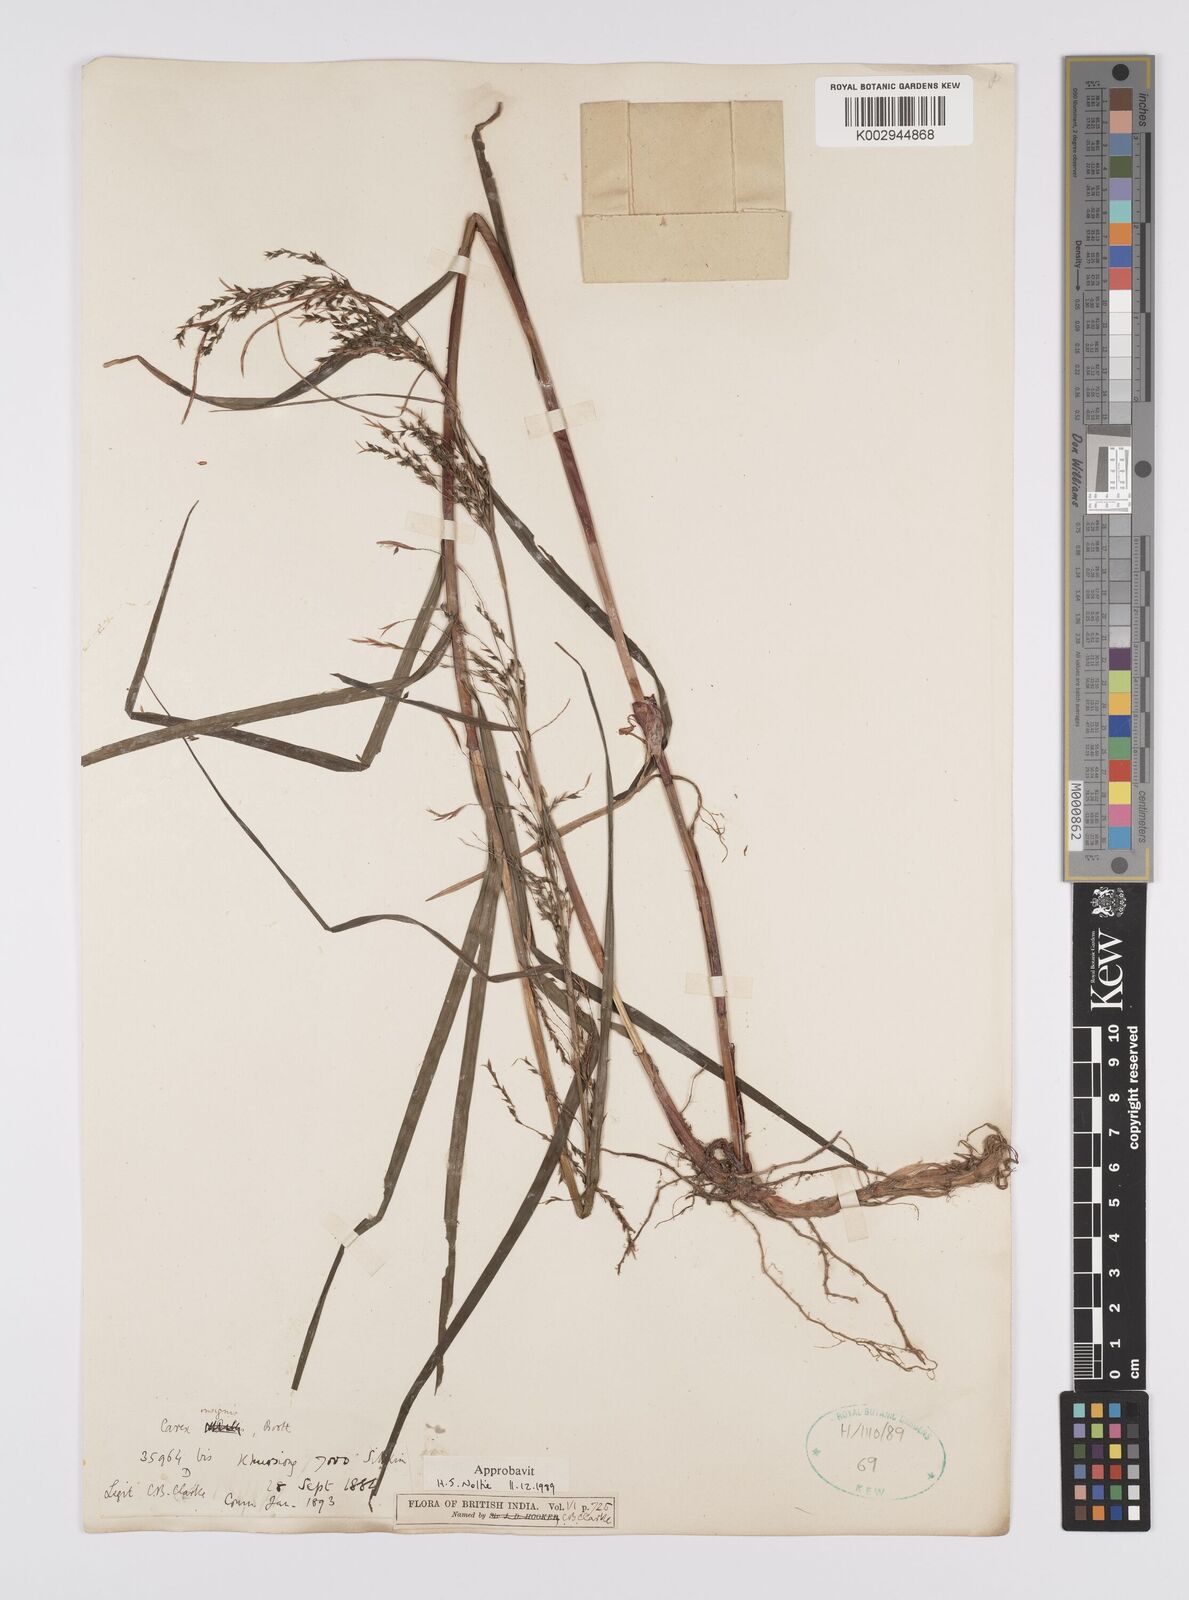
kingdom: Plantae
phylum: Tracheophyta
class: Liliopsida
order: Poales
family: Cyperaceae
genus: Carex
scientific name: Carex insignis
